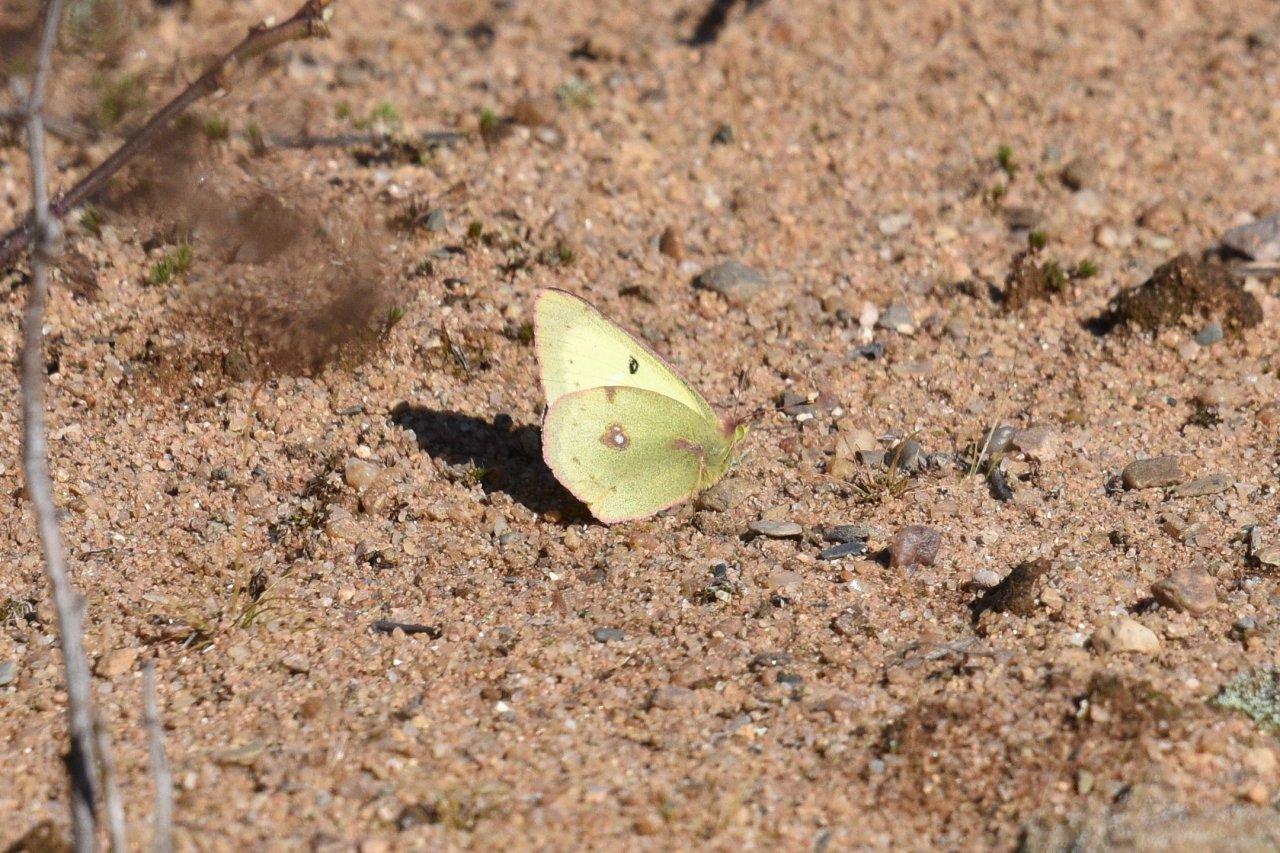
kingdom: Animalia
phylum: Arthropoda
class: Insecta
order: Lepidoptera
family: Pieridae
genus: Colias
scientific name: Colias philodice
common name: Clouded Sulphur
